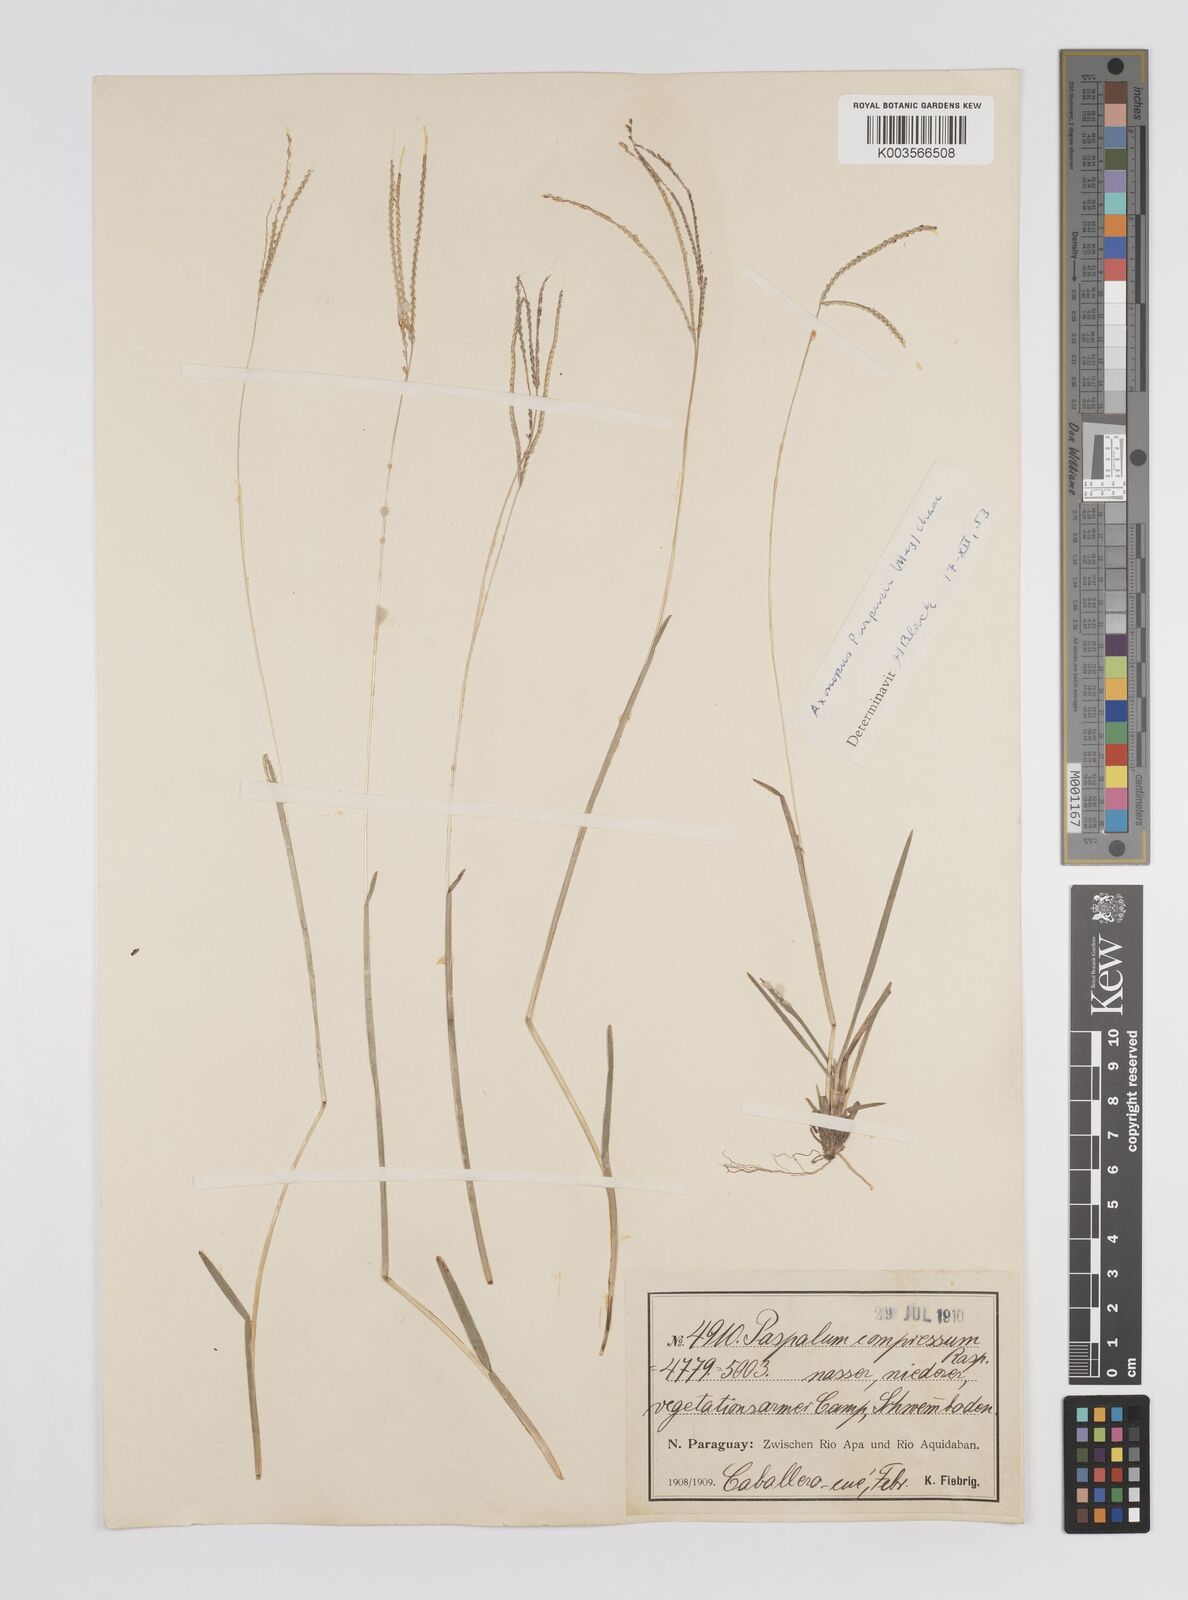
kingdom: Plantae
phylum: Tracheophyta
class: Liliopsida
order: Poales
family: Poaceae
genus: Axonopus
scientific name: Axonopus purpusii
